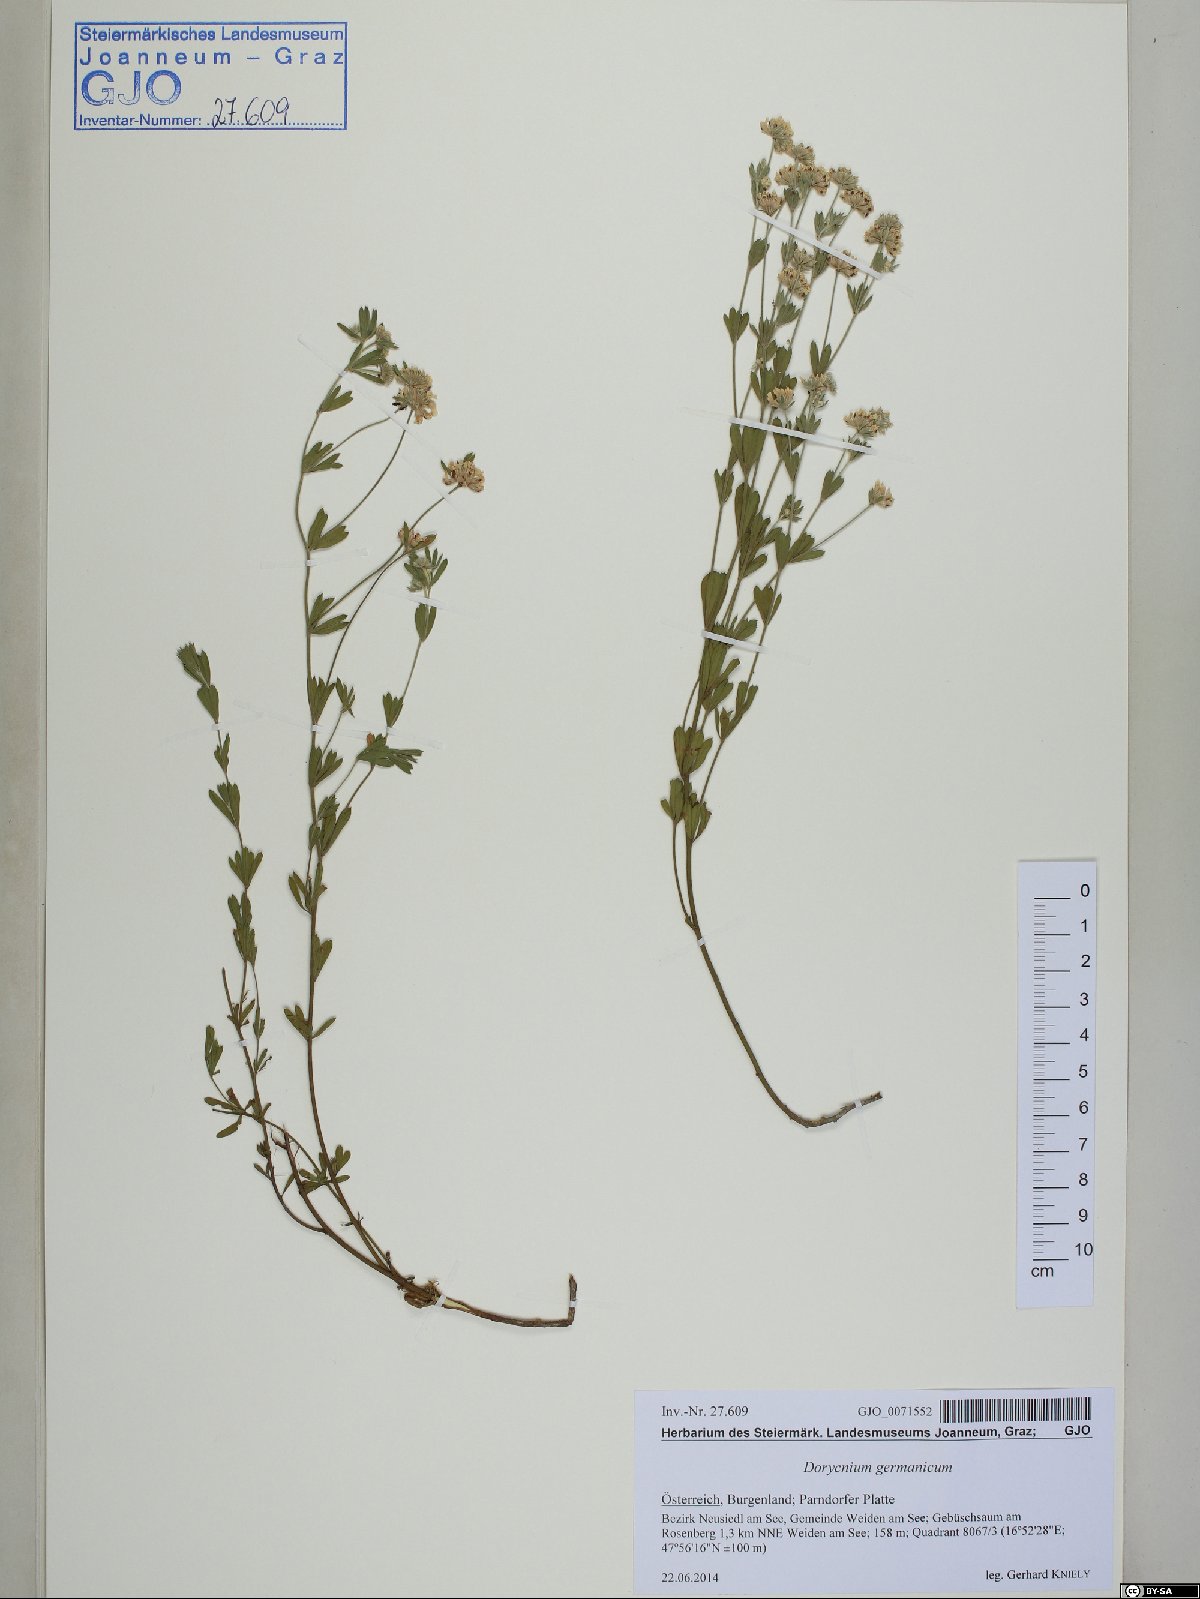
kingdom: Plantae
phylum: Tracheophyta
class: Magnoliopsida
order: Fabales
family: Fabaceae
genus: Lotus
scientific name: Lotus germanicus
